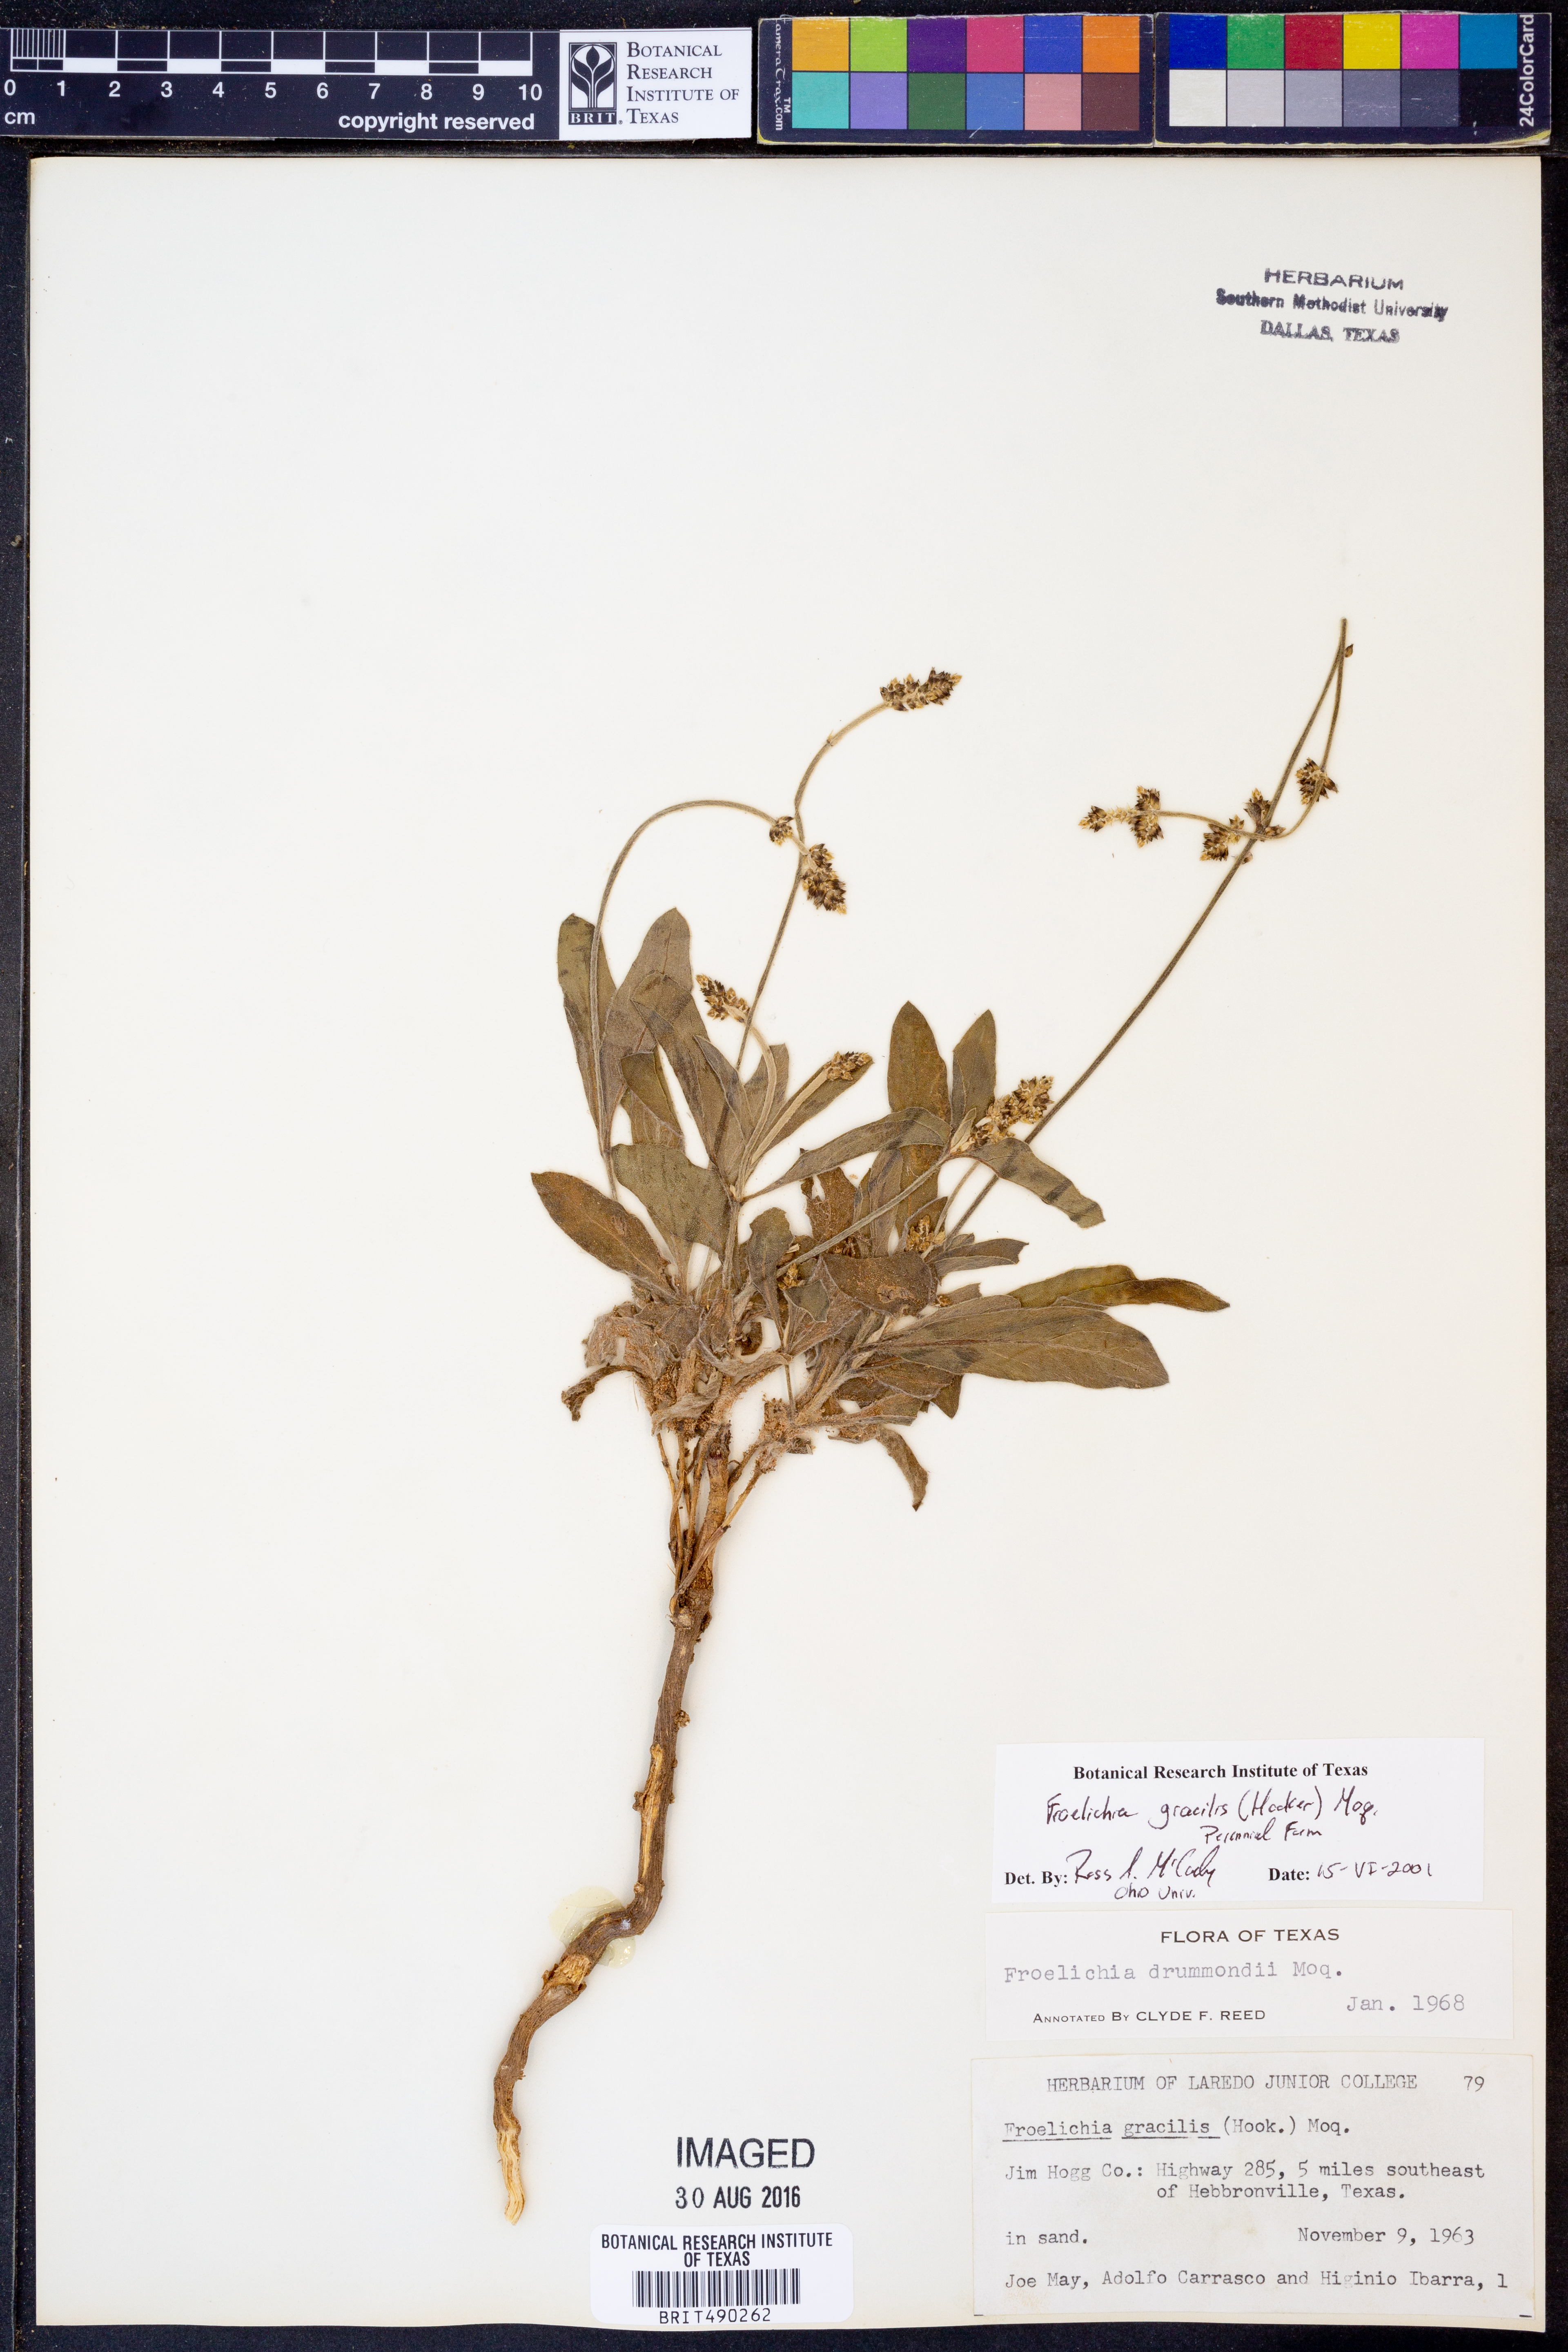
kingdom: Plantae
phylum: Tracheophyta
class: Magnoliopsida
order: Caryophyllales
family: Amaranthaceae
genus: Froelichia
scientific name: Froelichia gracilis
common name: Slender cottonweed
